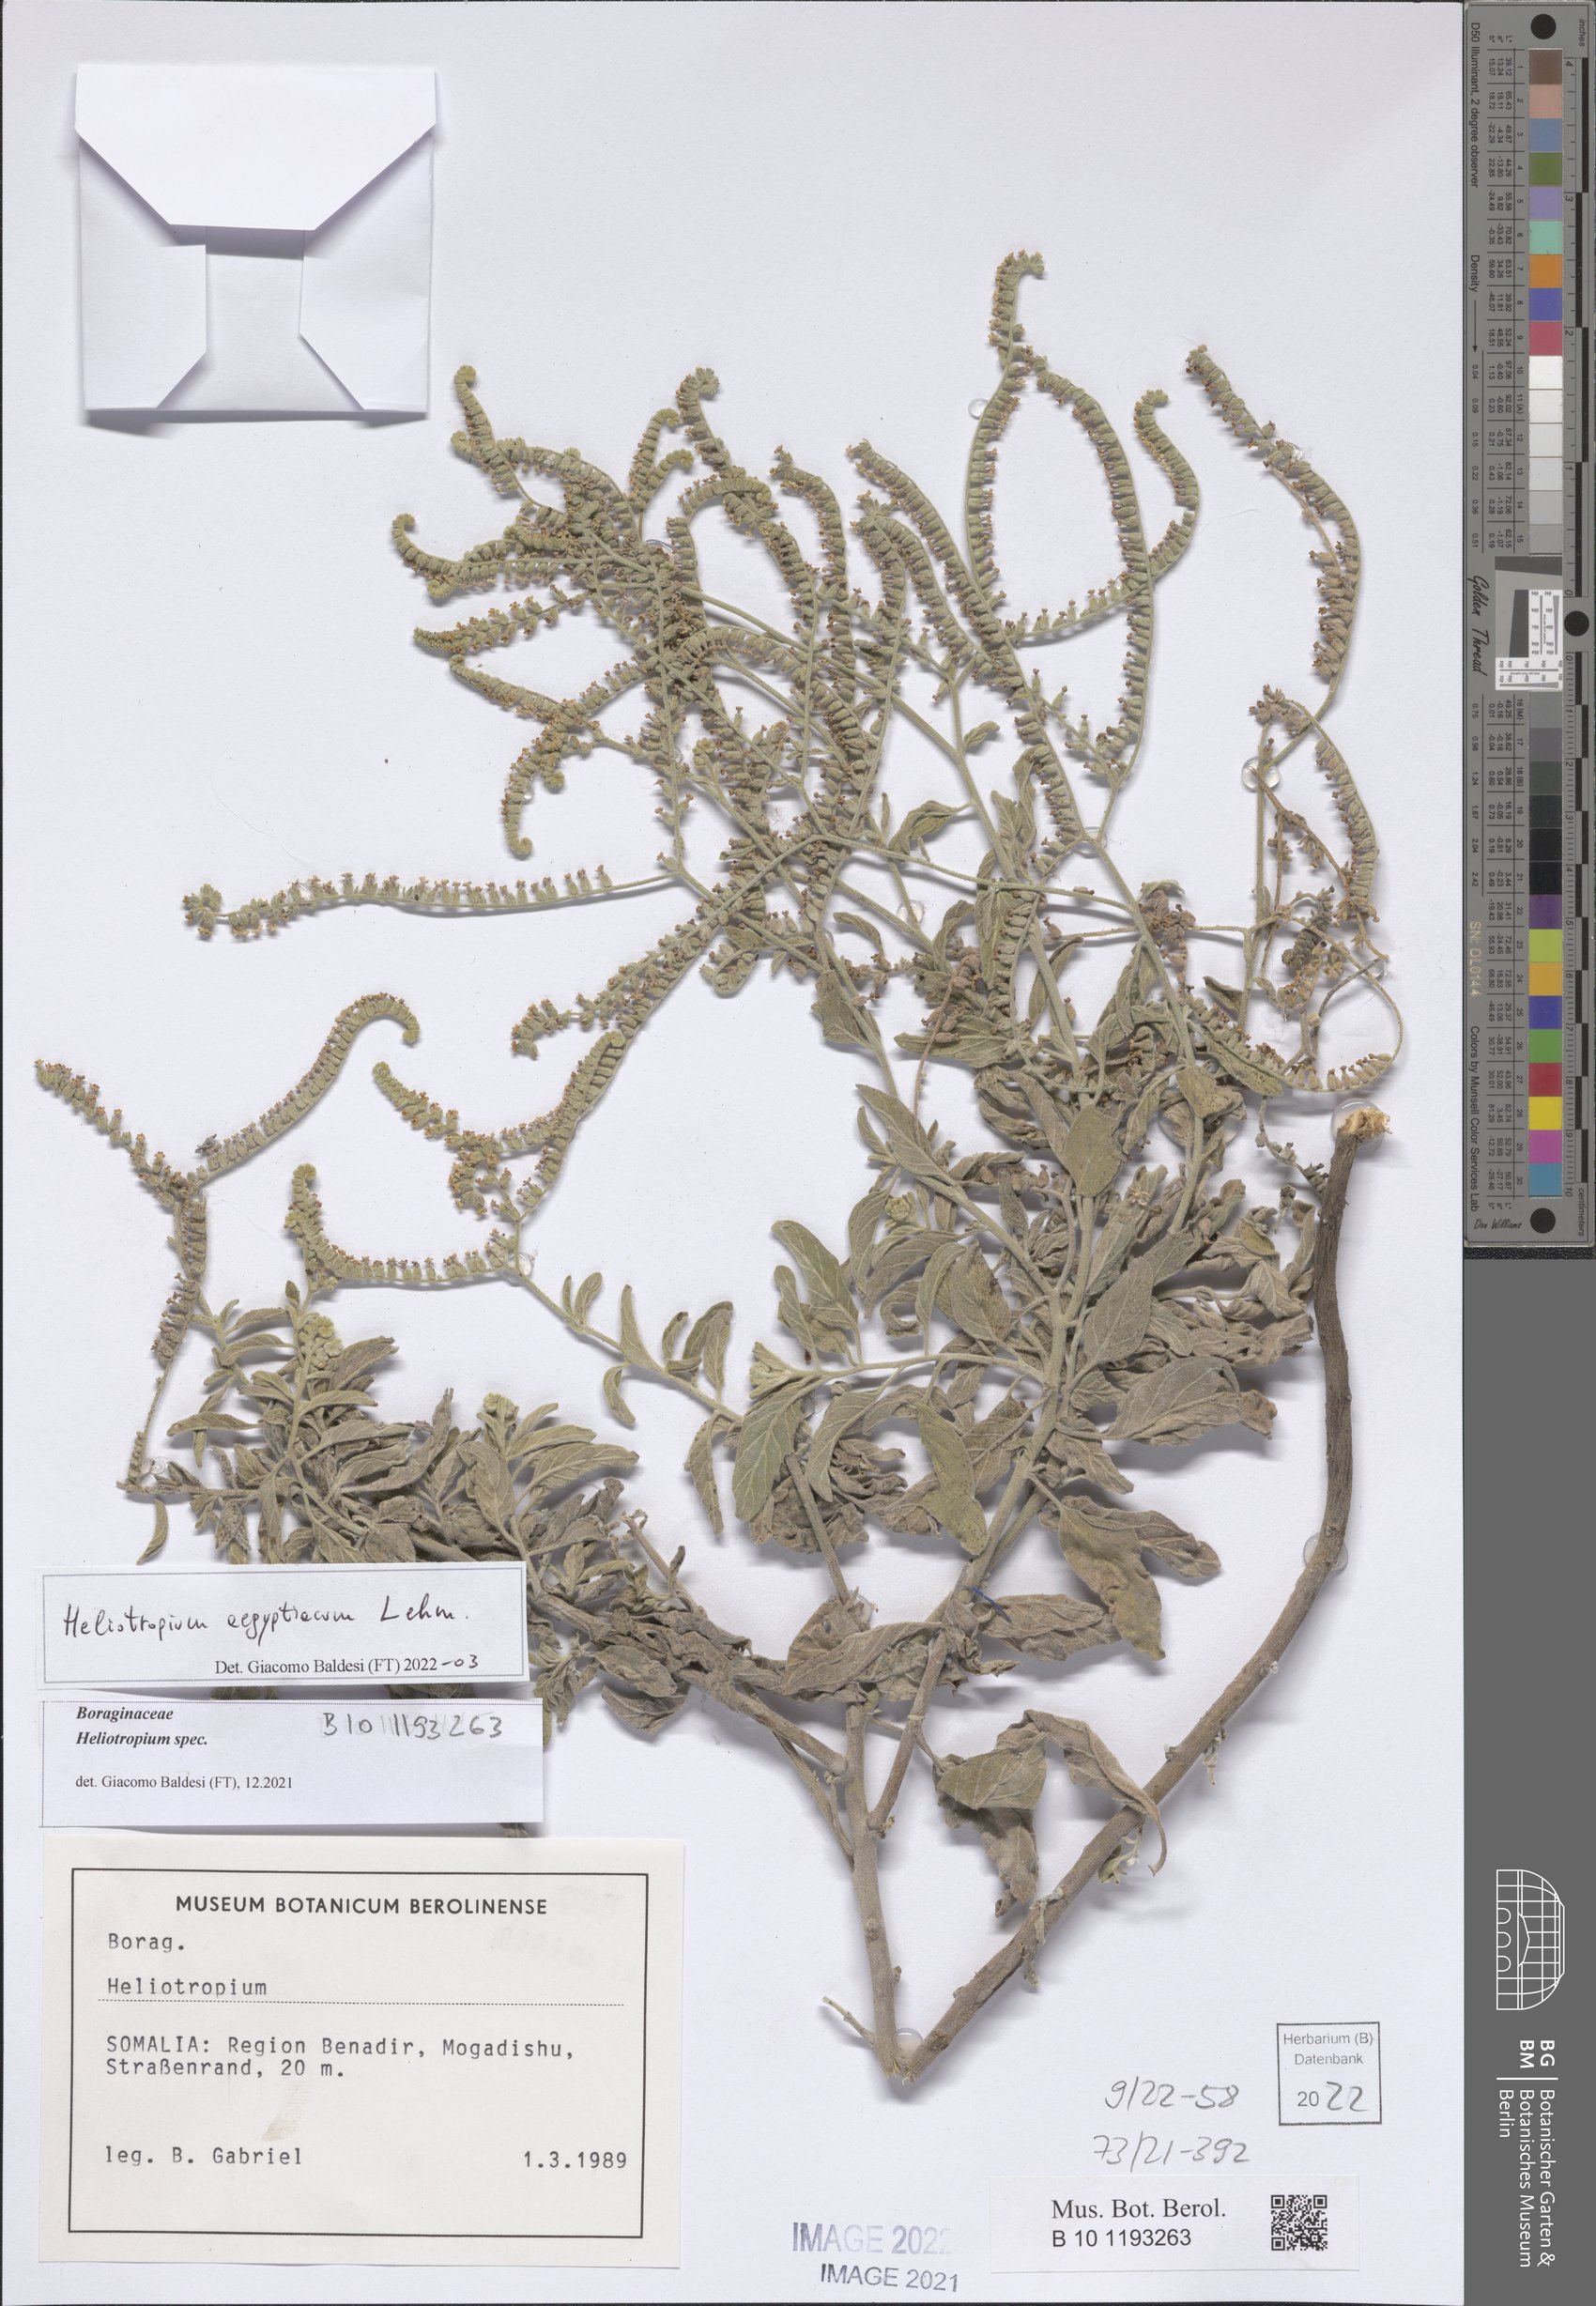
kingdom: Plantae
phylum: Tracheophyta
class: Magnoliopsida
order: Boraginales
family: Heliotropiaceae
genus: Heliotropium
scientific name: Heliotropium aegyptiacum
